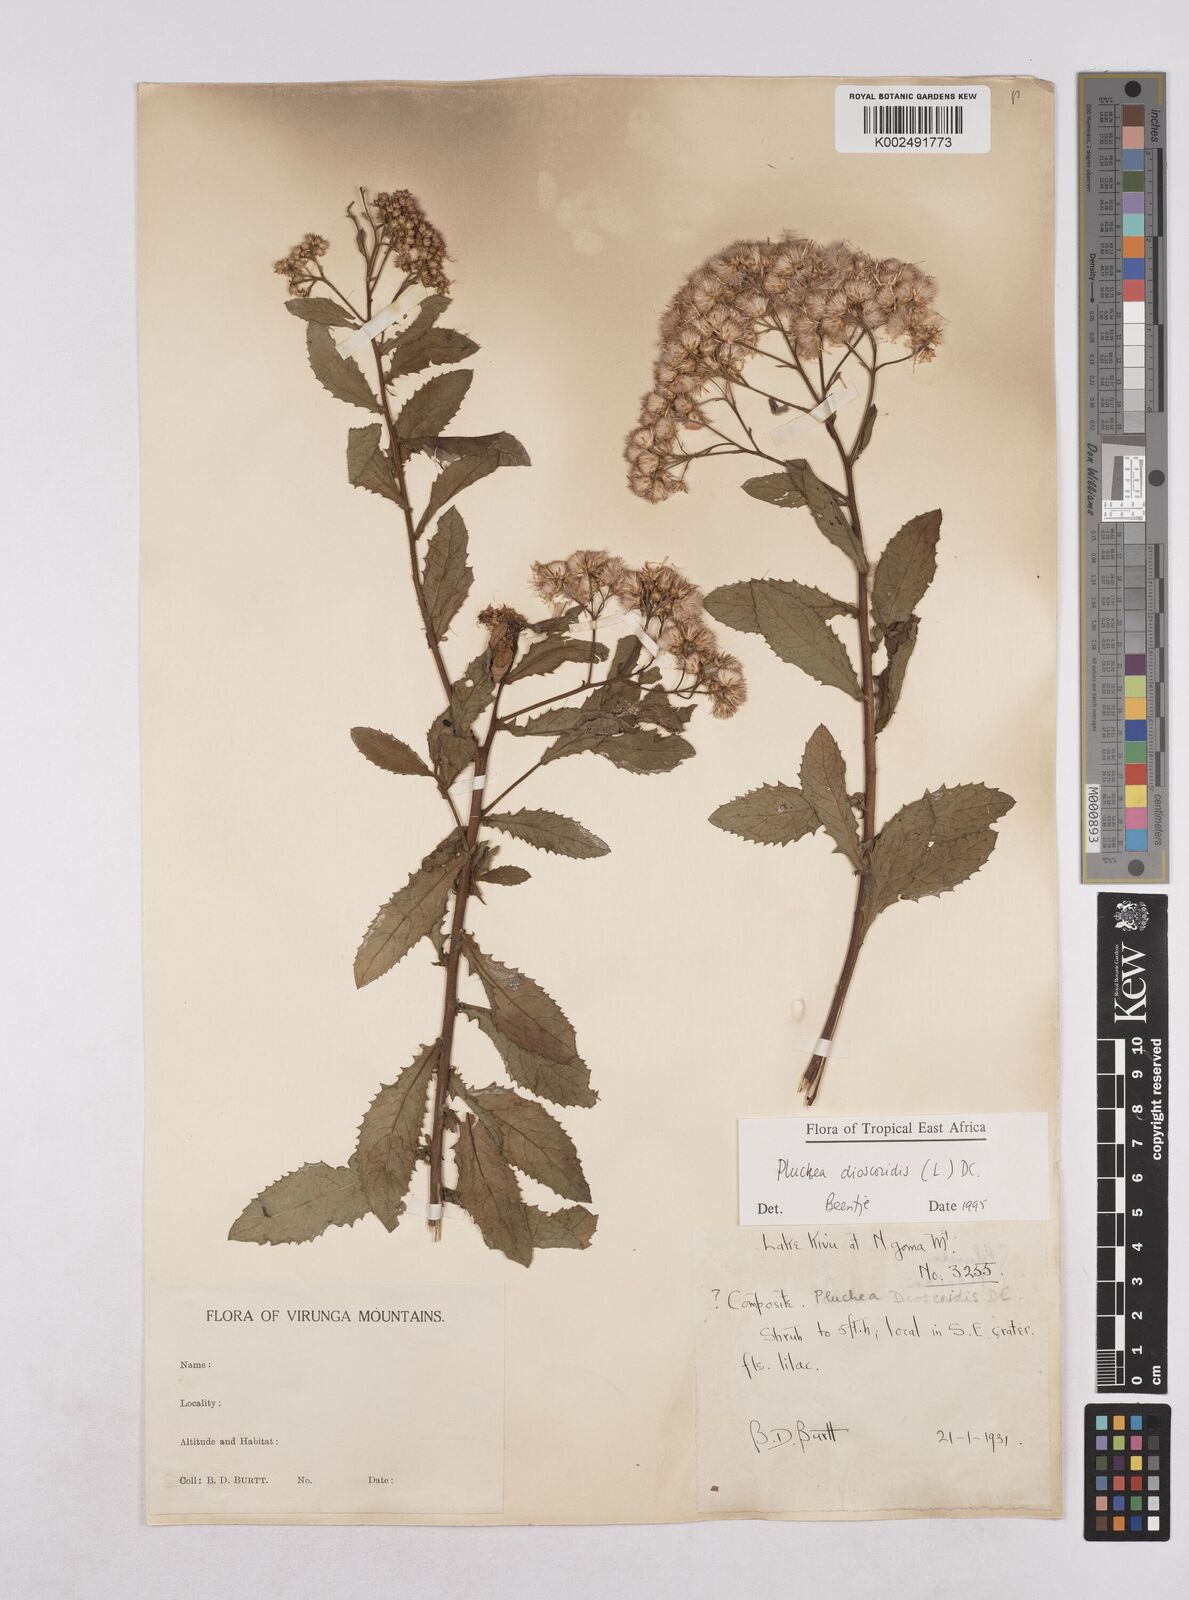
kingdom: Plantae
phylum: Tracheophyta
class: Magnoliopsida
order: Asterales
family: Asteraceae
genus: Pluchea
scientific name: Pluchea dioscoridis
